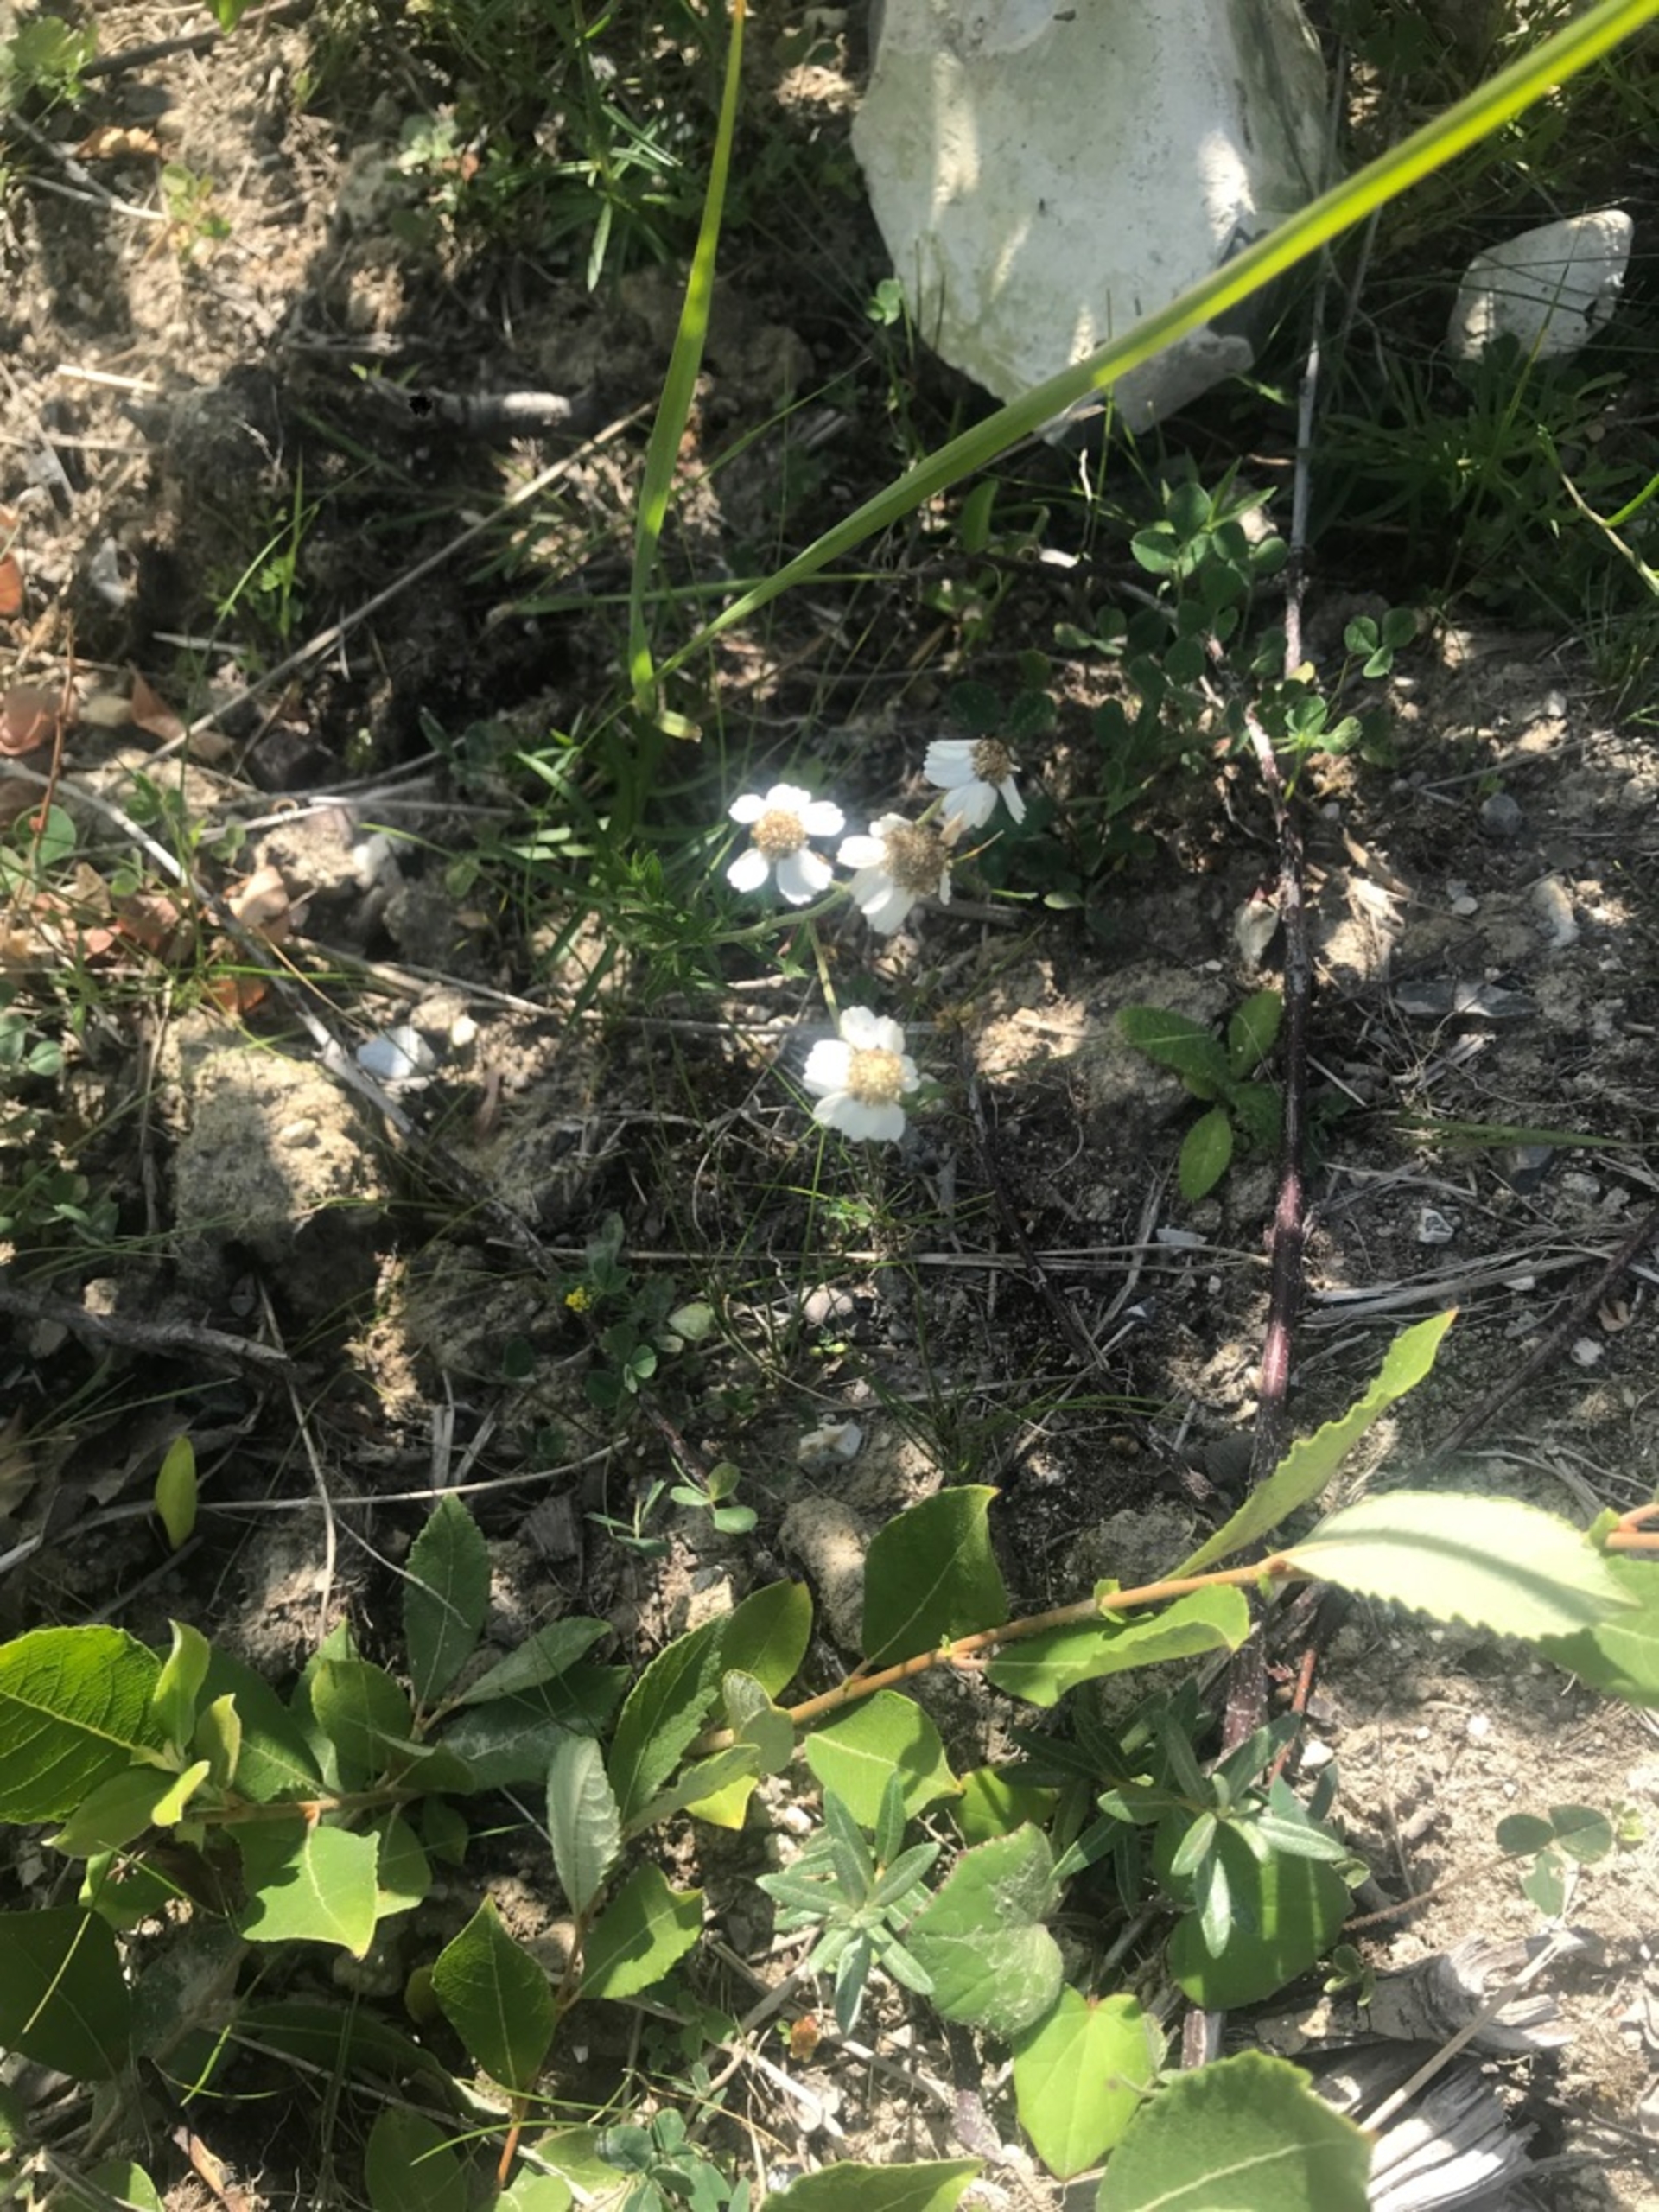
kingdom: Plantae
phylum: Tracheophyta
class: Magnoliopsida
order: Asterales
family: Asteraceae
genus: Achillea
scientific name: Achillea ptarmica
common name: Nyse-røllike
